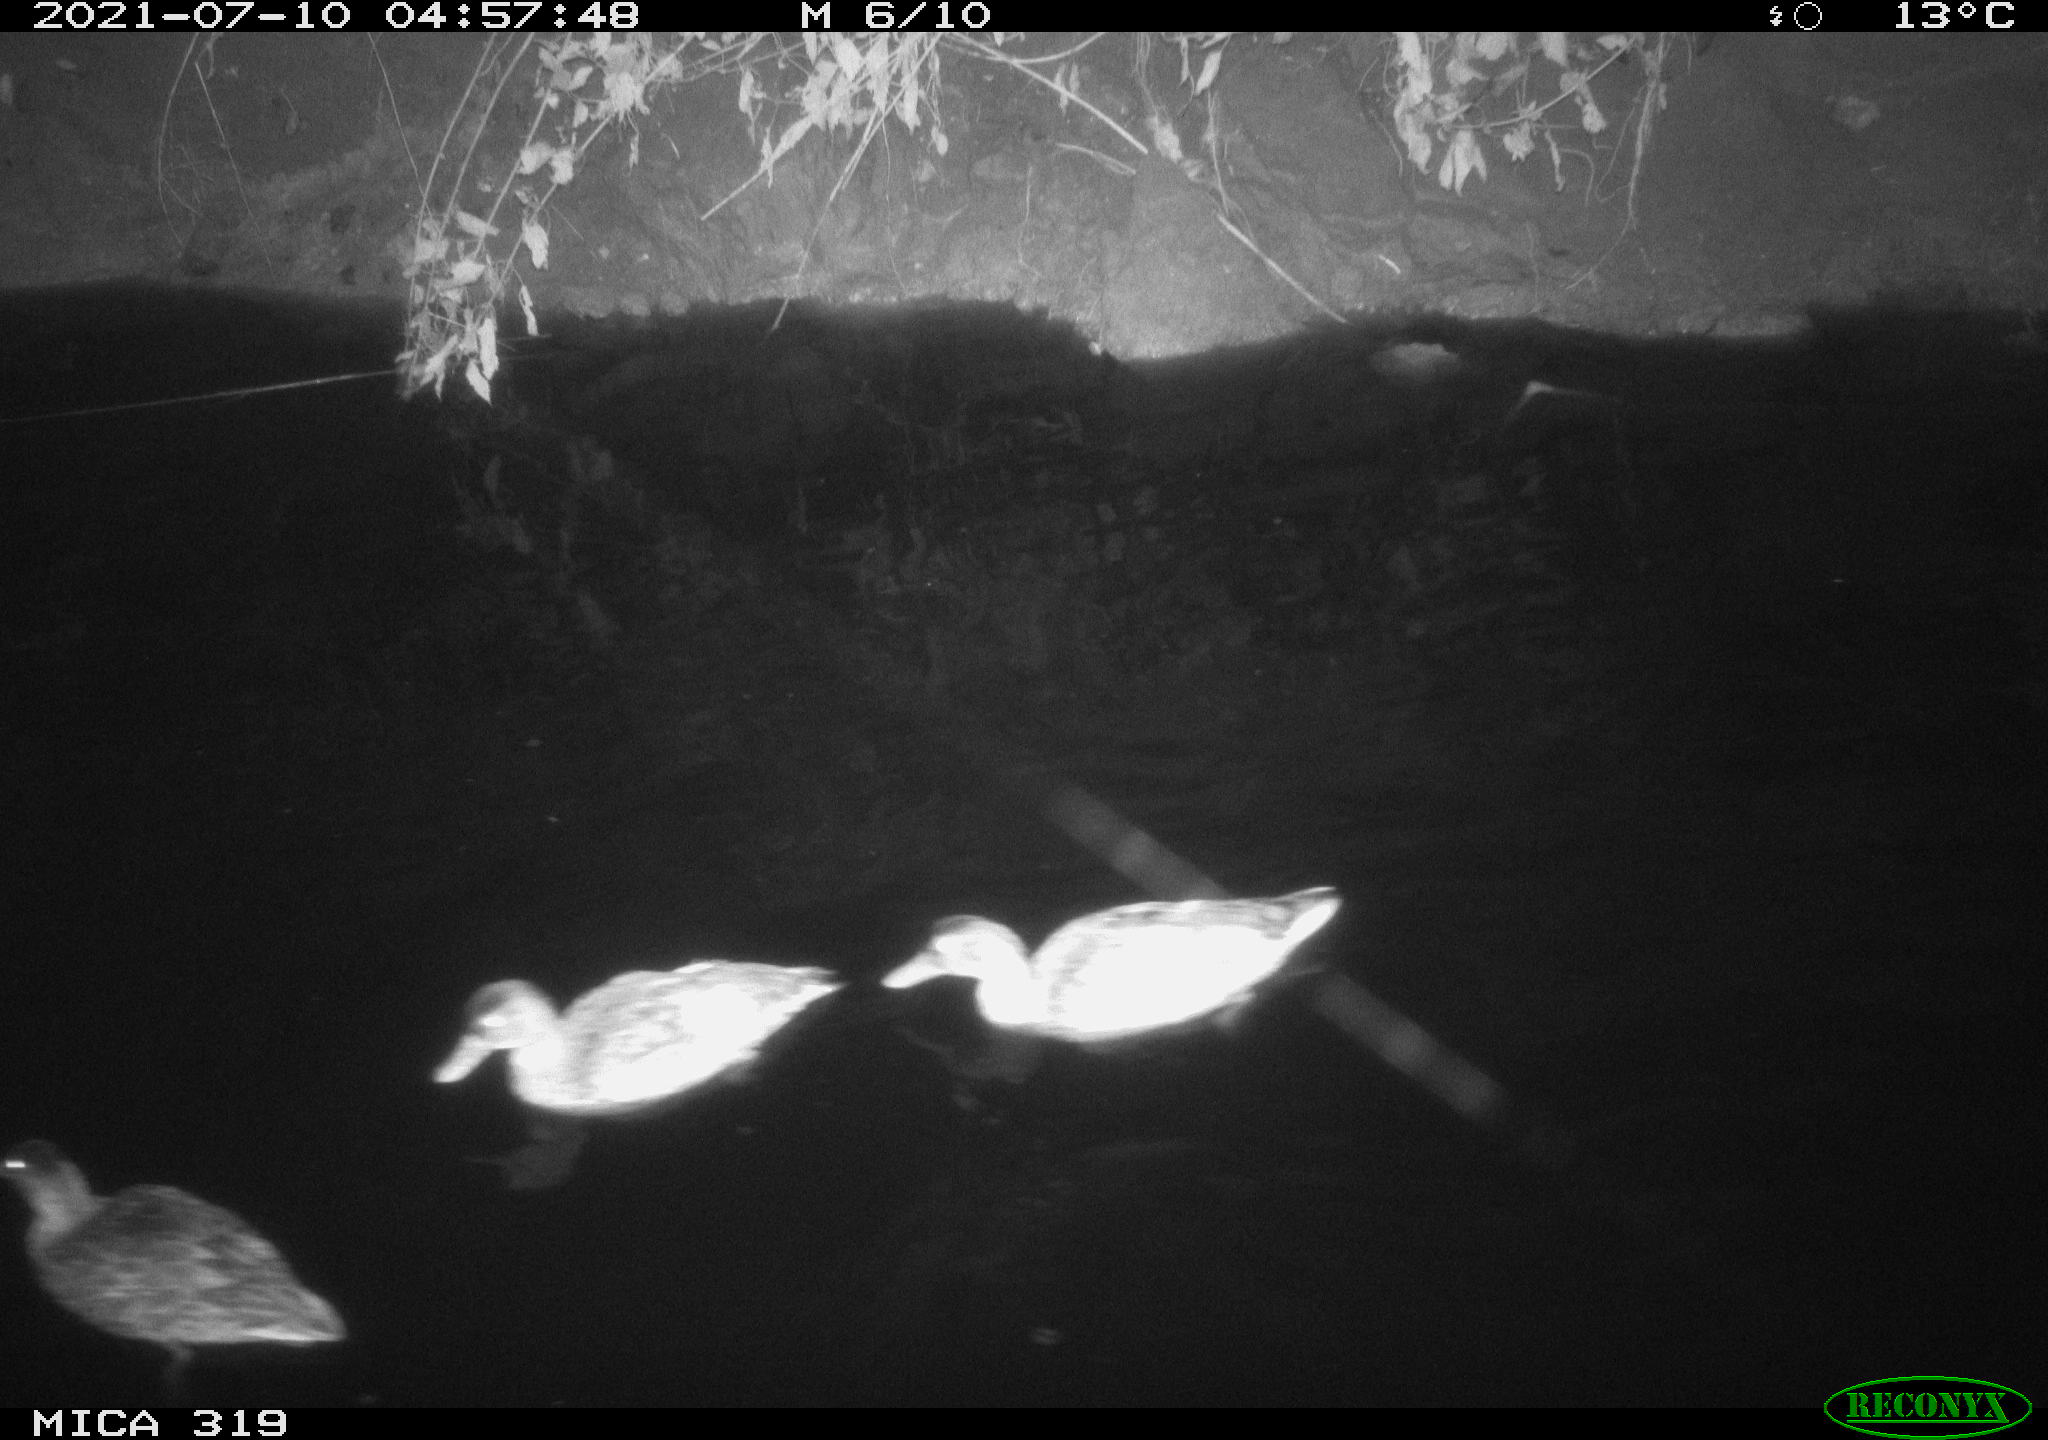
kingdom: Animalia
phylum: Chordata
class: Aves
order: Anseriformes
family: Anatidae
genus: Anas
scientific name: Anas platyrhynchos
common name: Mallard
